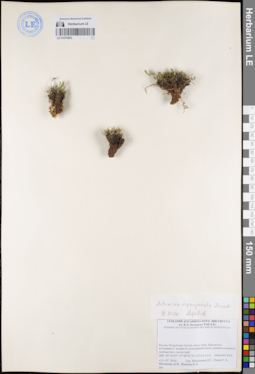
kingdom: Plantae
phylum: Tracheophyta
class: Magnoliopsida
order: Asterales
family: Asteraceae
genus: Artemisia
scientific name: Artemisia pycnorrhiza
